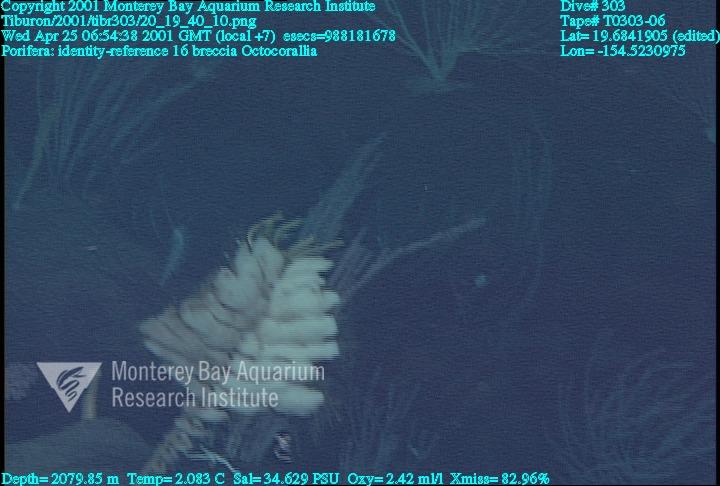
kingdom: Animalia
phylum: Porifera
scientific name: Porifera
